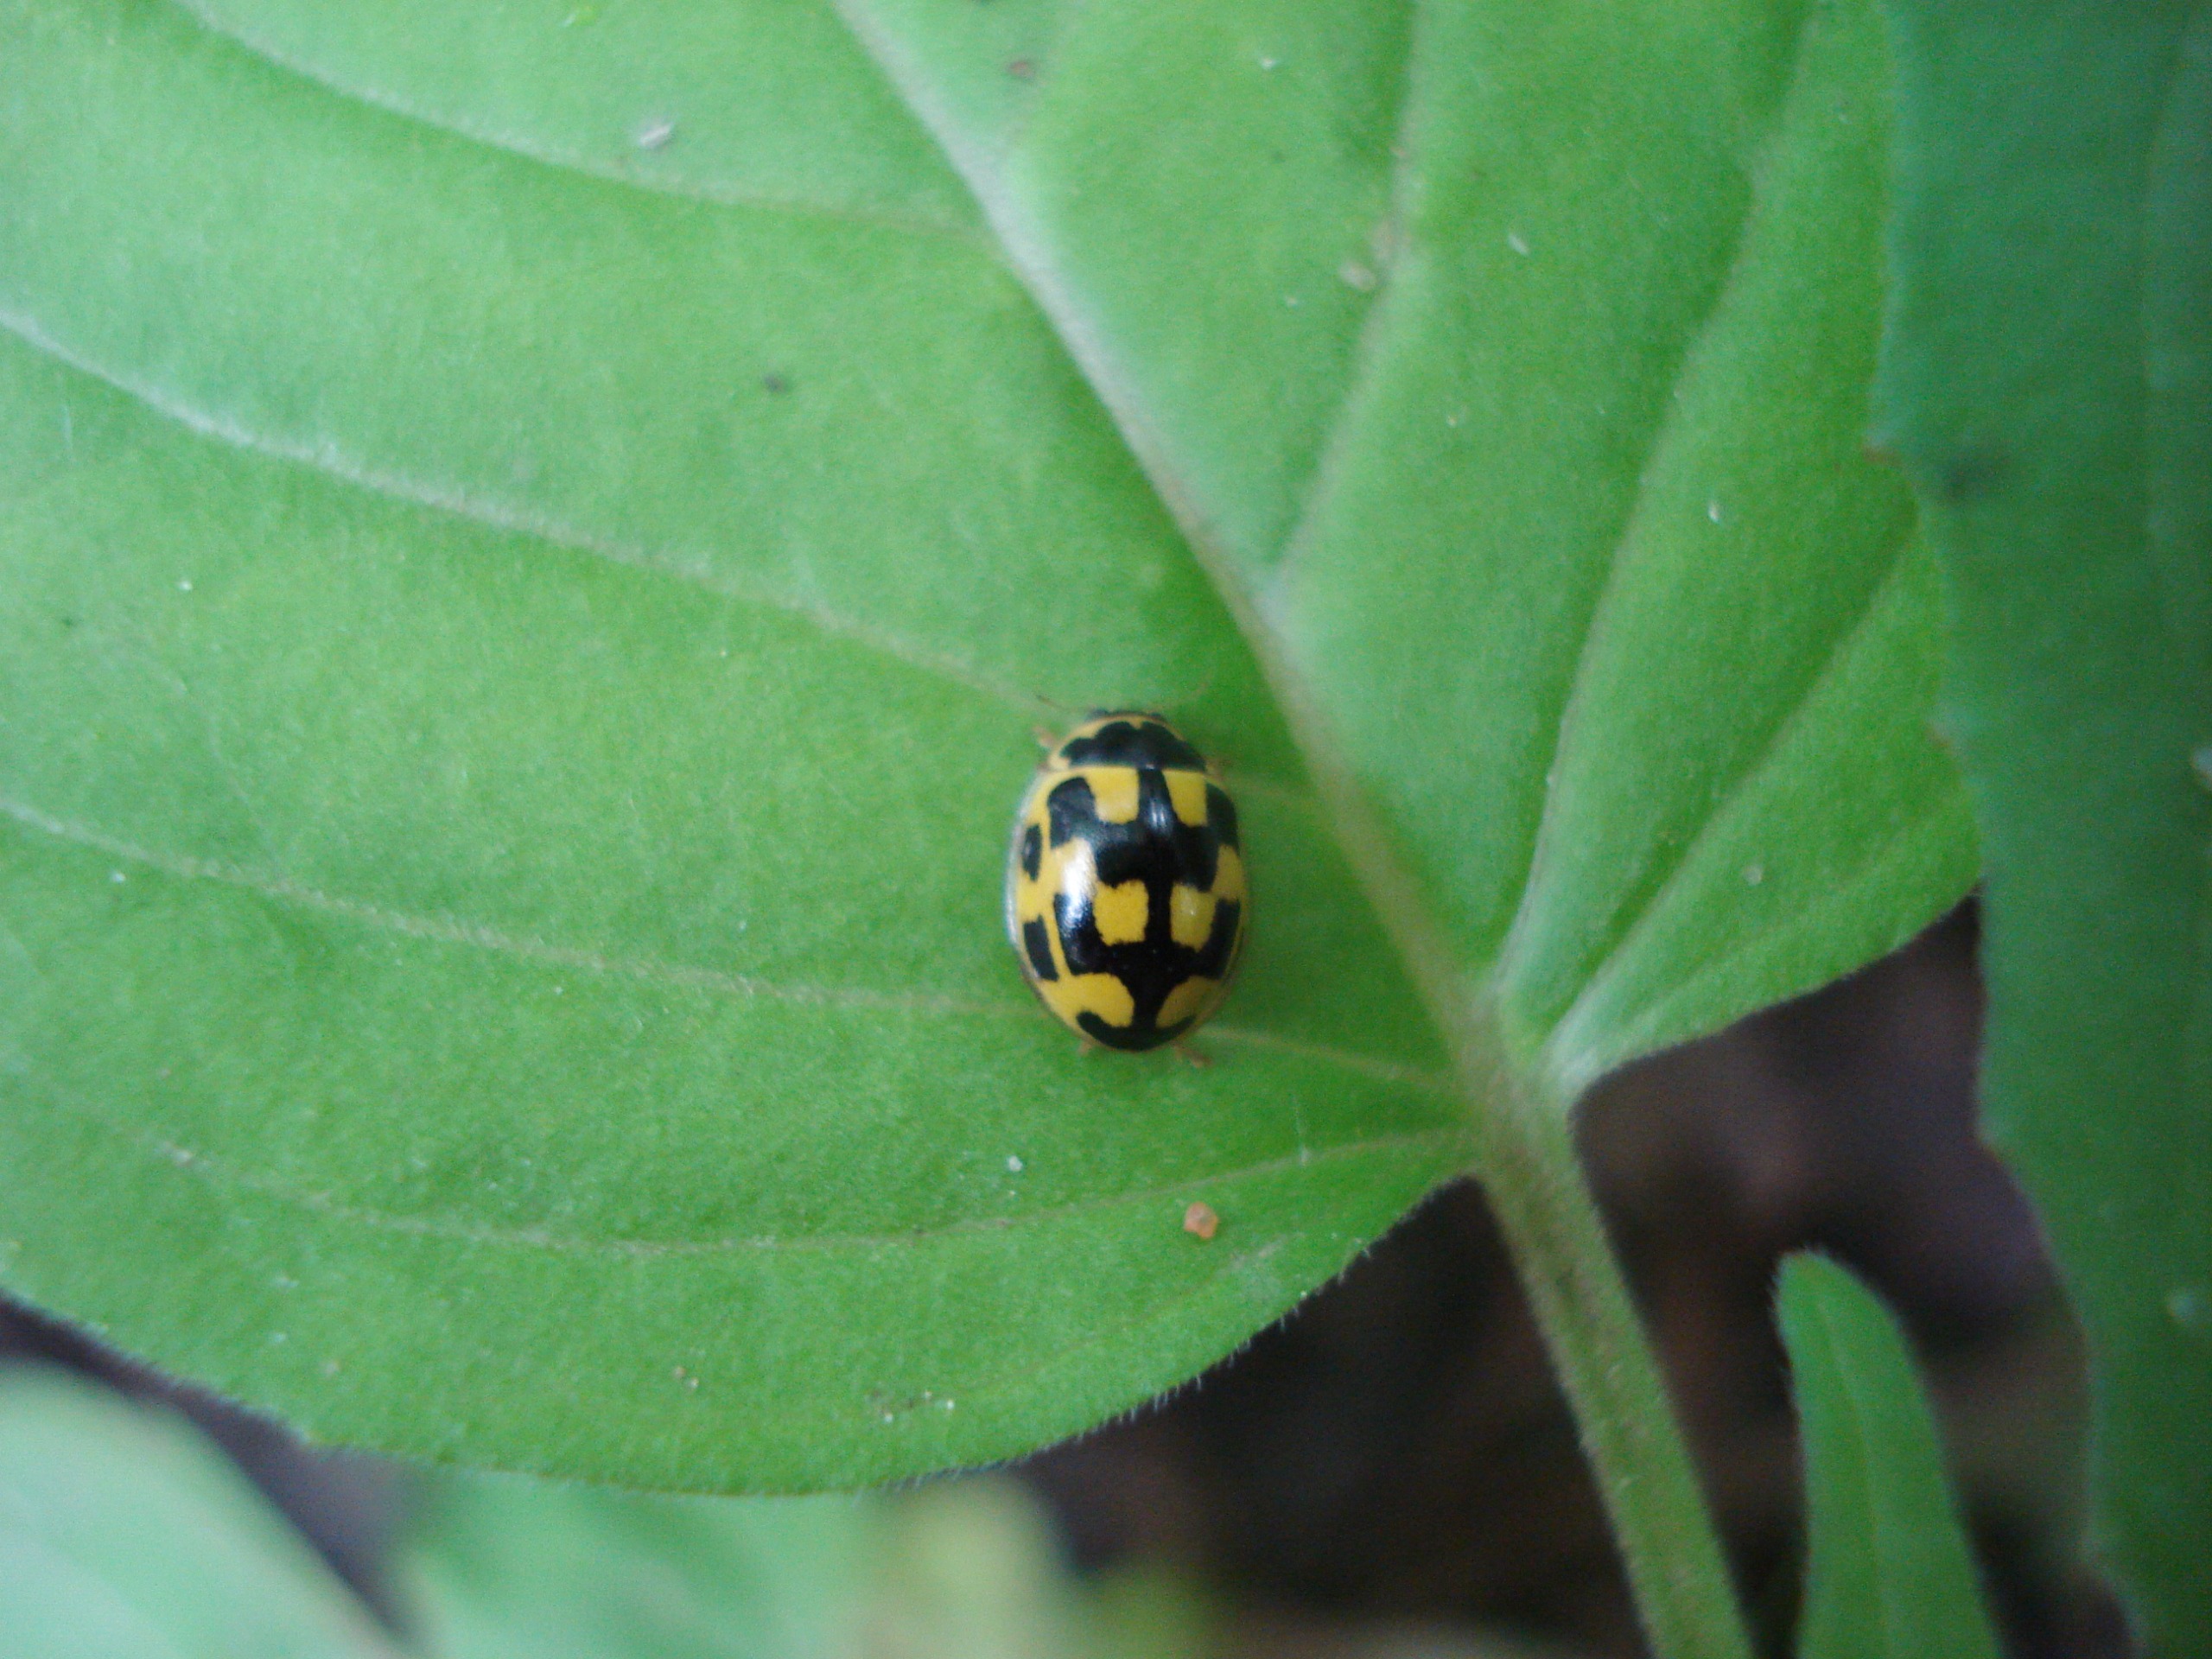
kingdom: Animalia
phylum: Arthropoda
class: Insecta
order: Coleoptera
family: Coccinellidae
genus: Propylaea
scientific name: Propylaea quatuordecimpunctata
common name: Skakbræt
